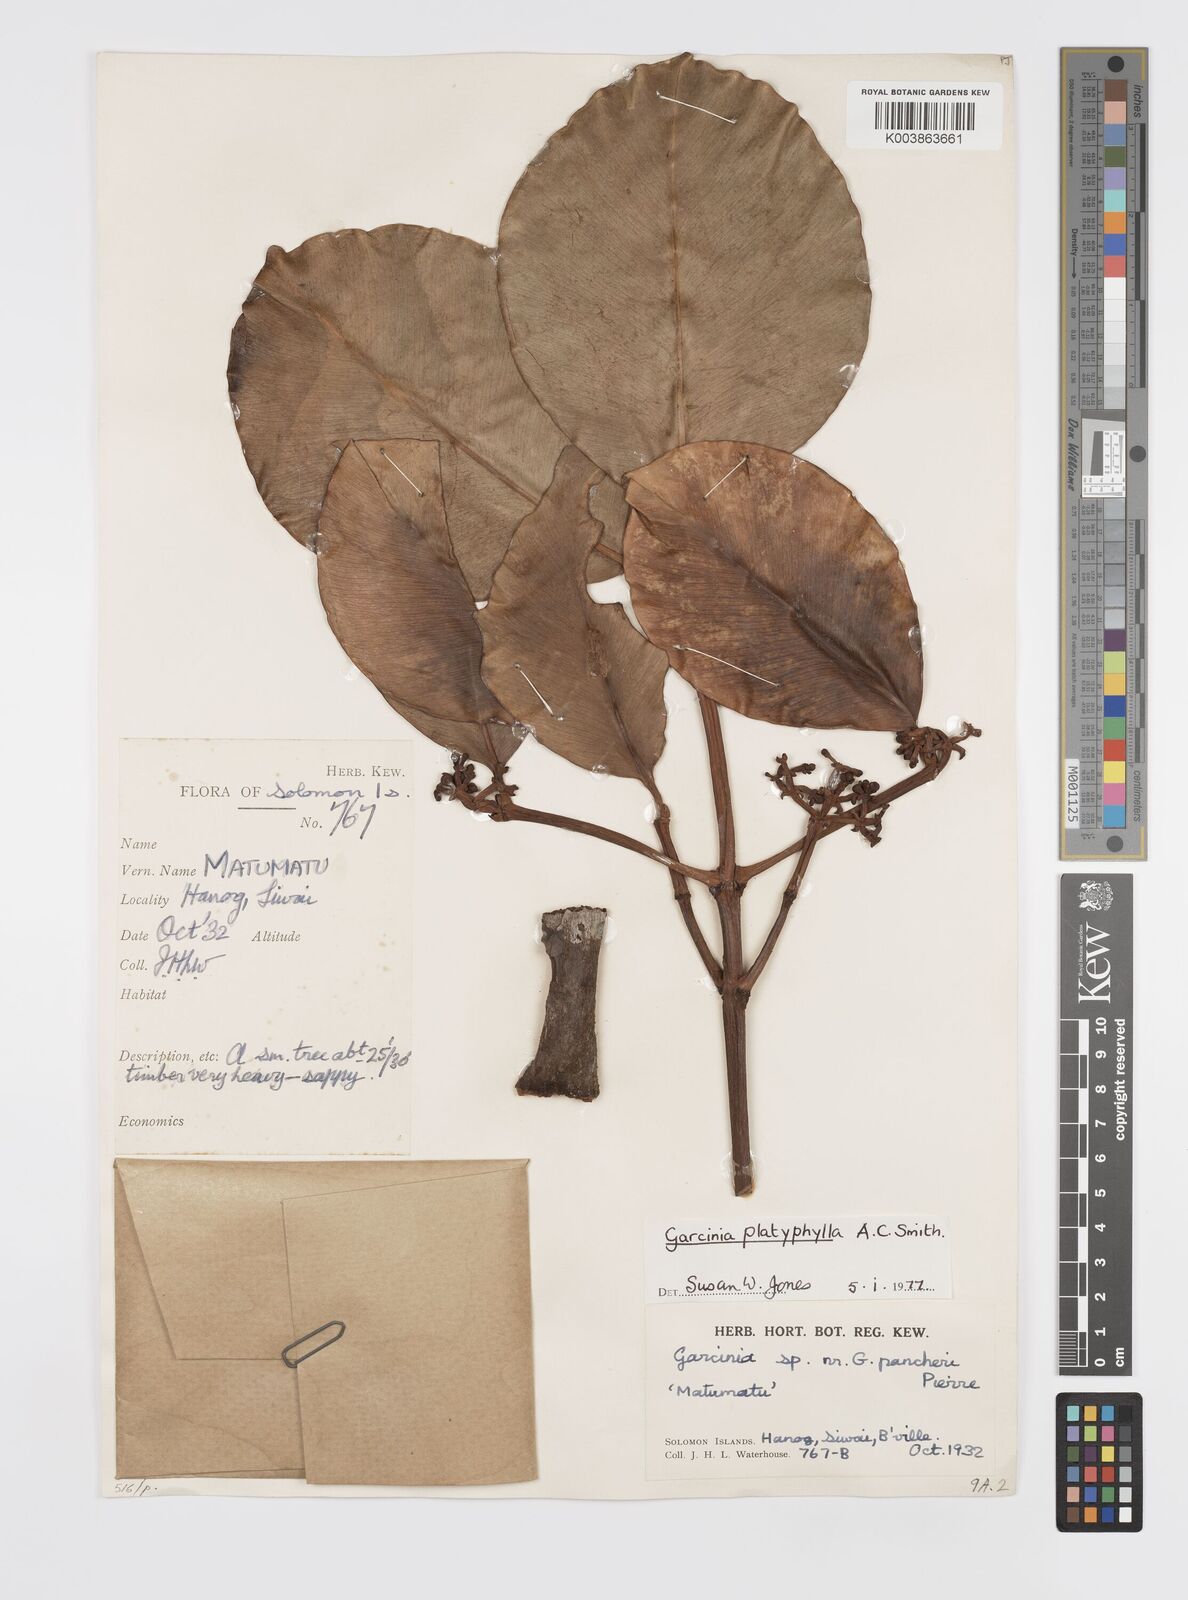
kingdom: Plantae
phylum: Tracheophyta
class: Magnoliopsida
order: Malpighiales
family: Clusiaceae
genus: Garcinia
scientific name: Garcinia platyphylla
